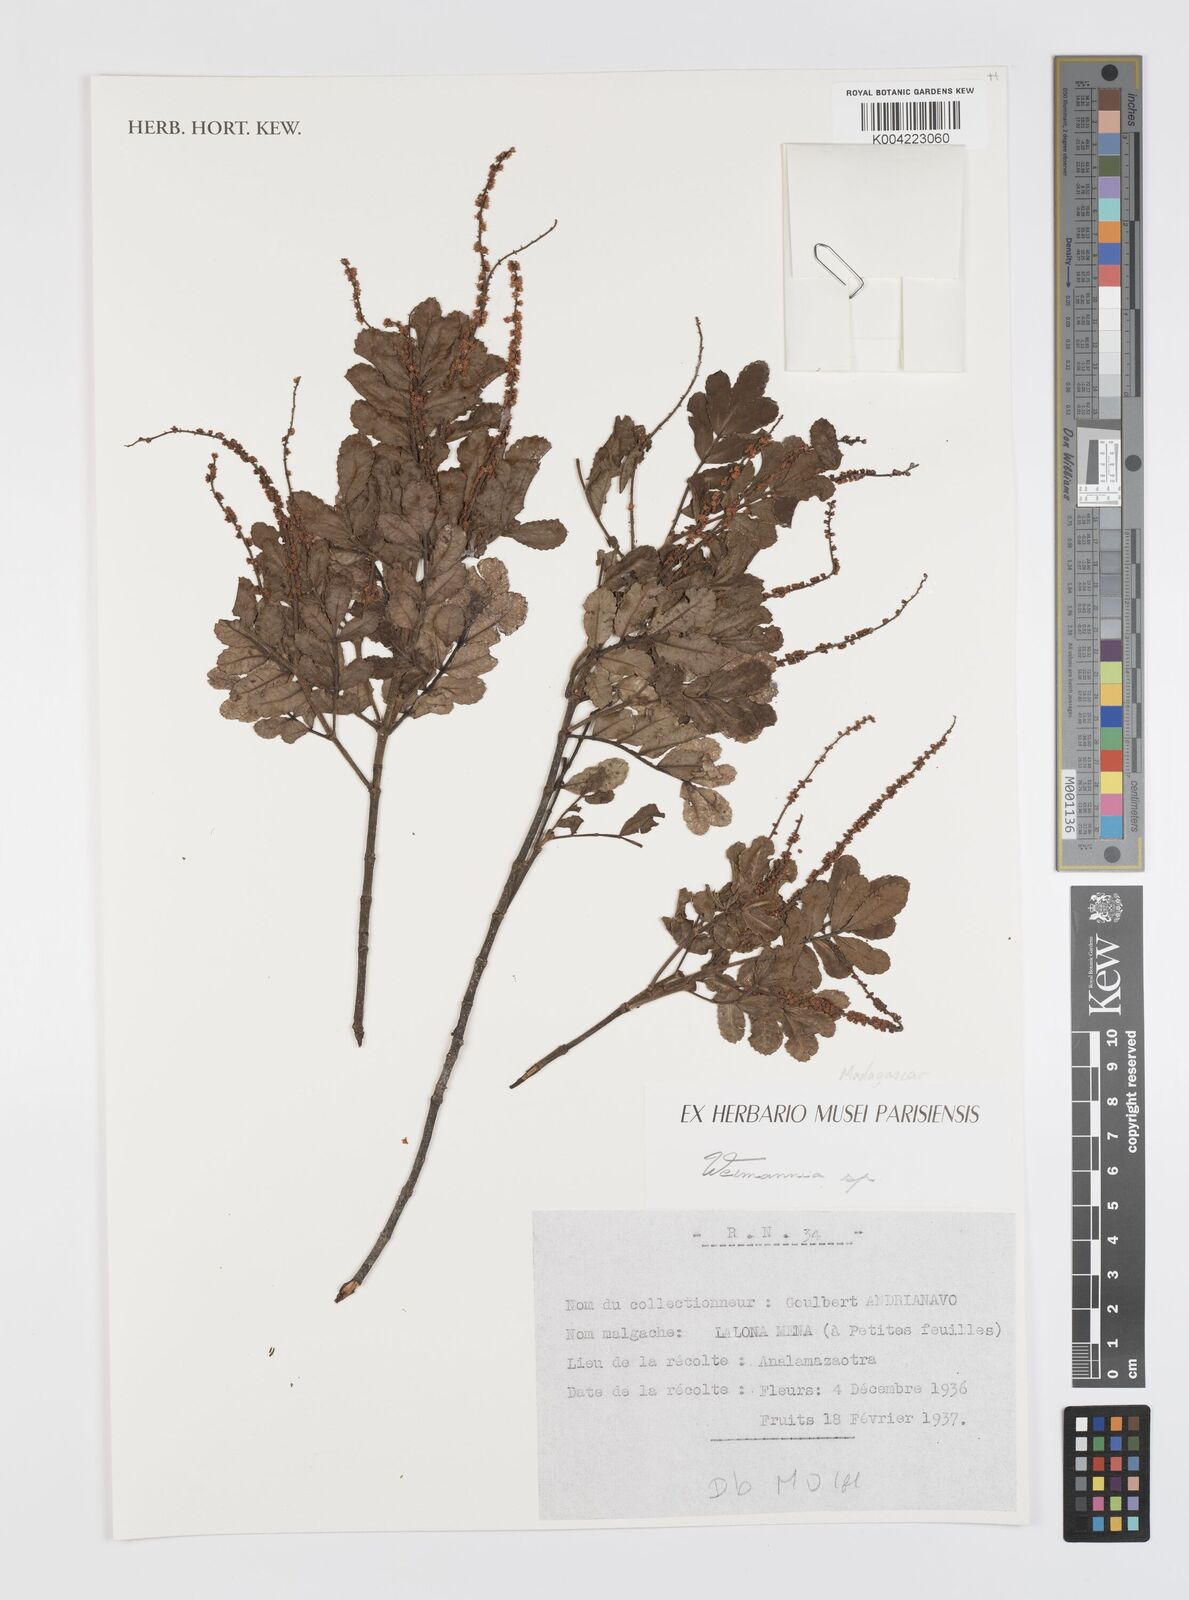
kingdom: Plantae
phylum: Tracheophyta
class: Magnoliopsida
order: Oxalidales
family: Cunoniaceae
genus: Weinmannia
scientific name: Weinmannia
